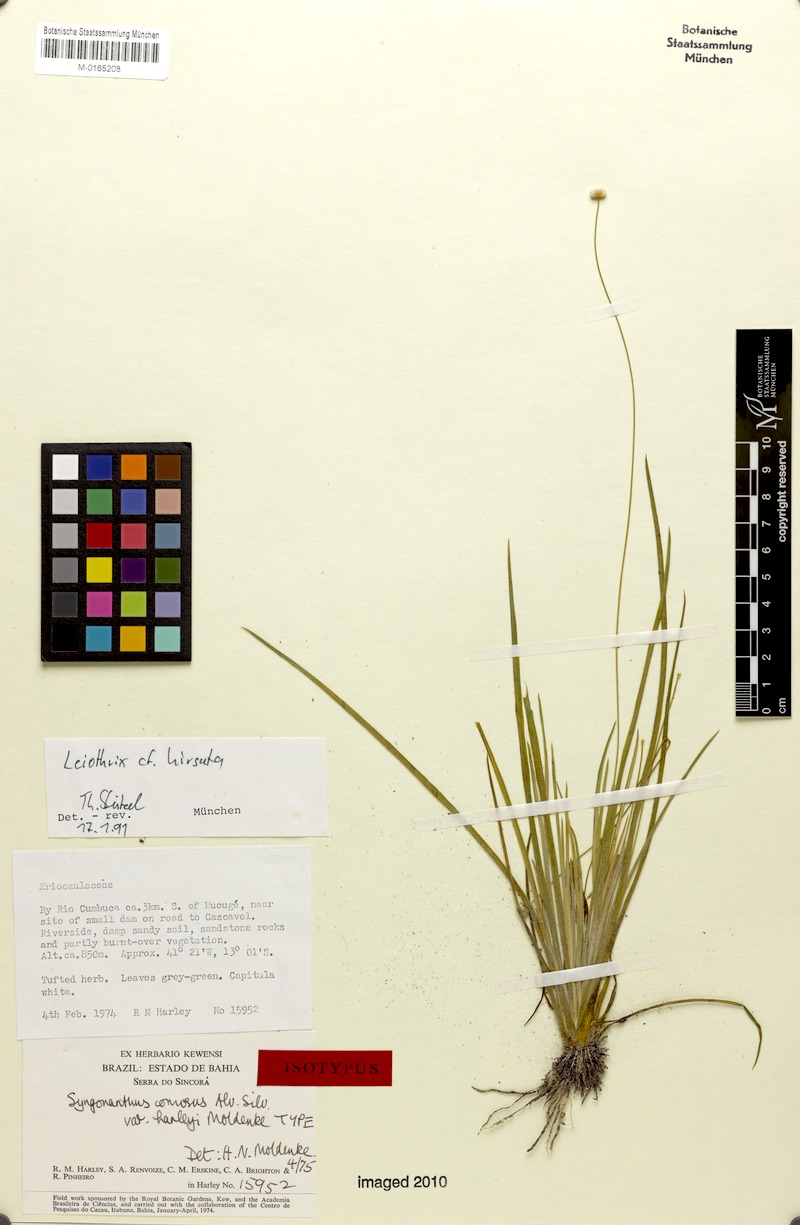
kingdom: Plantae
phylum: Tracheophyta
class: Liliopsida
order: Poales
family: Eriocaulaceae
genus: Leiothrix
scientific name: Leiothrix hirsuta
